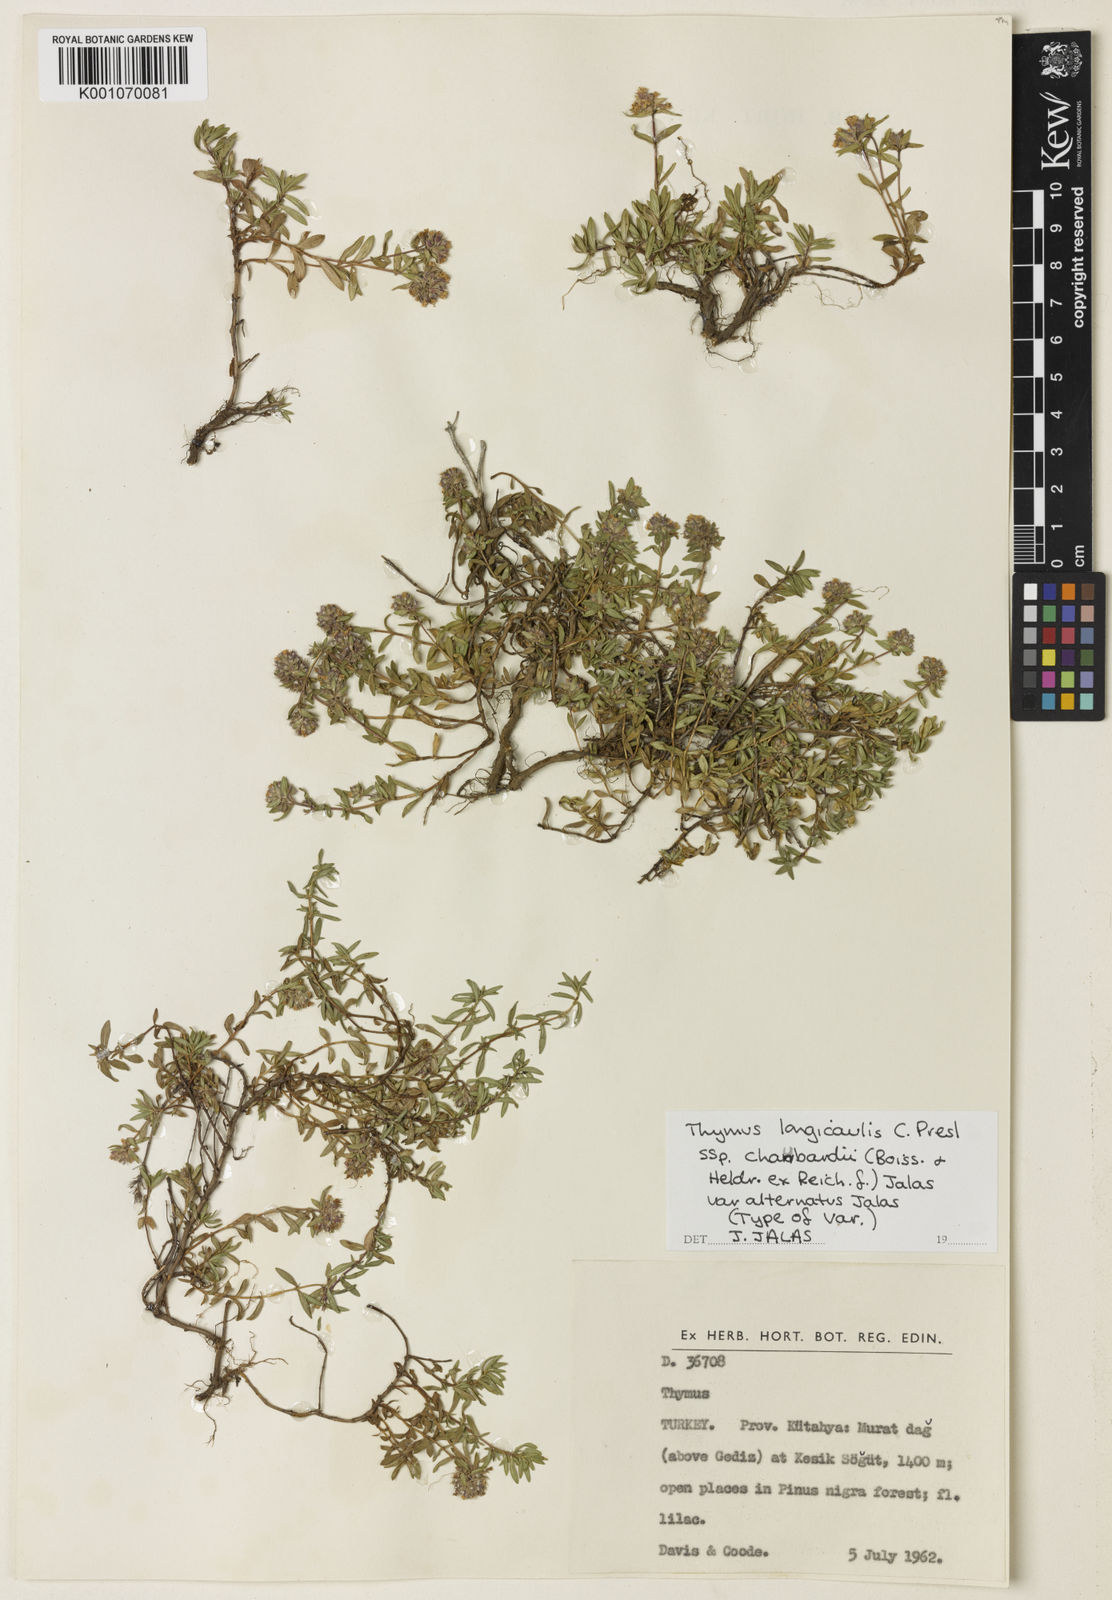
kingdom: Plantae
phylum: Tracheophyta
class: Magnoliopsida
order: Lamiales
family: Lamiaceae
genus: Thymus
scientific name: Thymus longicaulis
